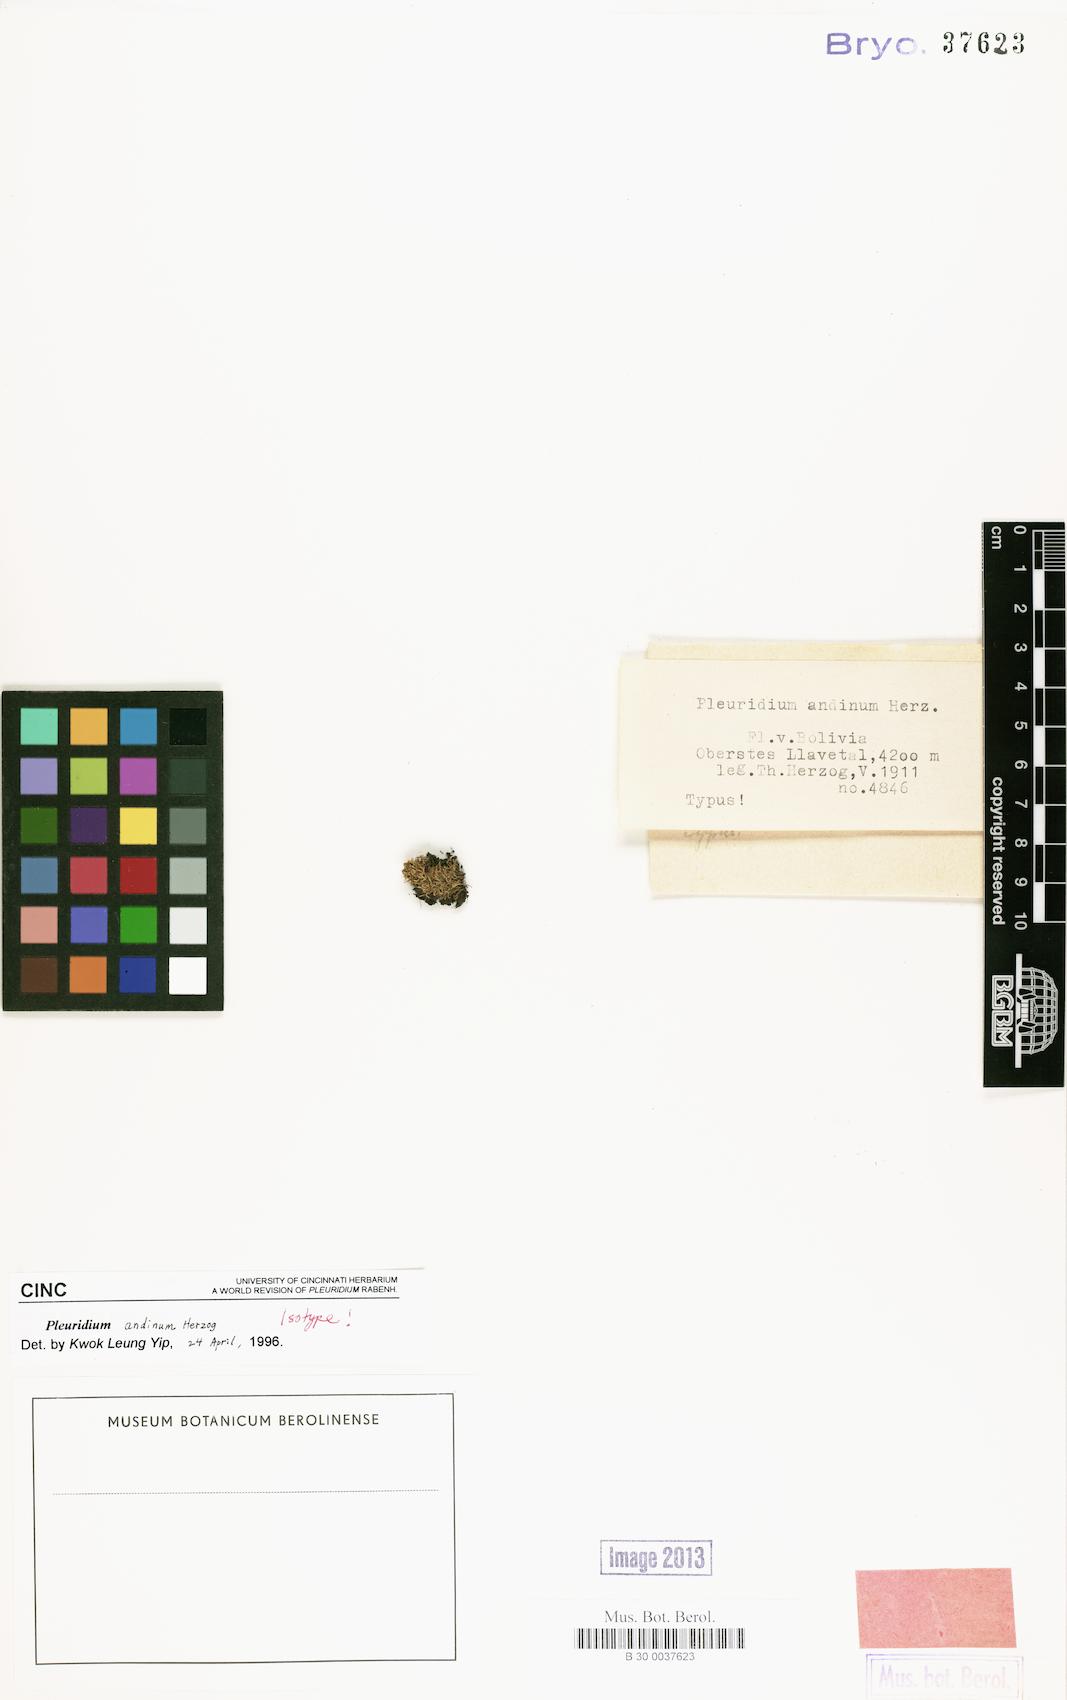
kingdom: Plantae
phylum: Bryophyta
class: Bryopsida
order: Dicranales
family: Ditrichaceae
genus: Pleuridium
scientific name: Pleuridium andinum
